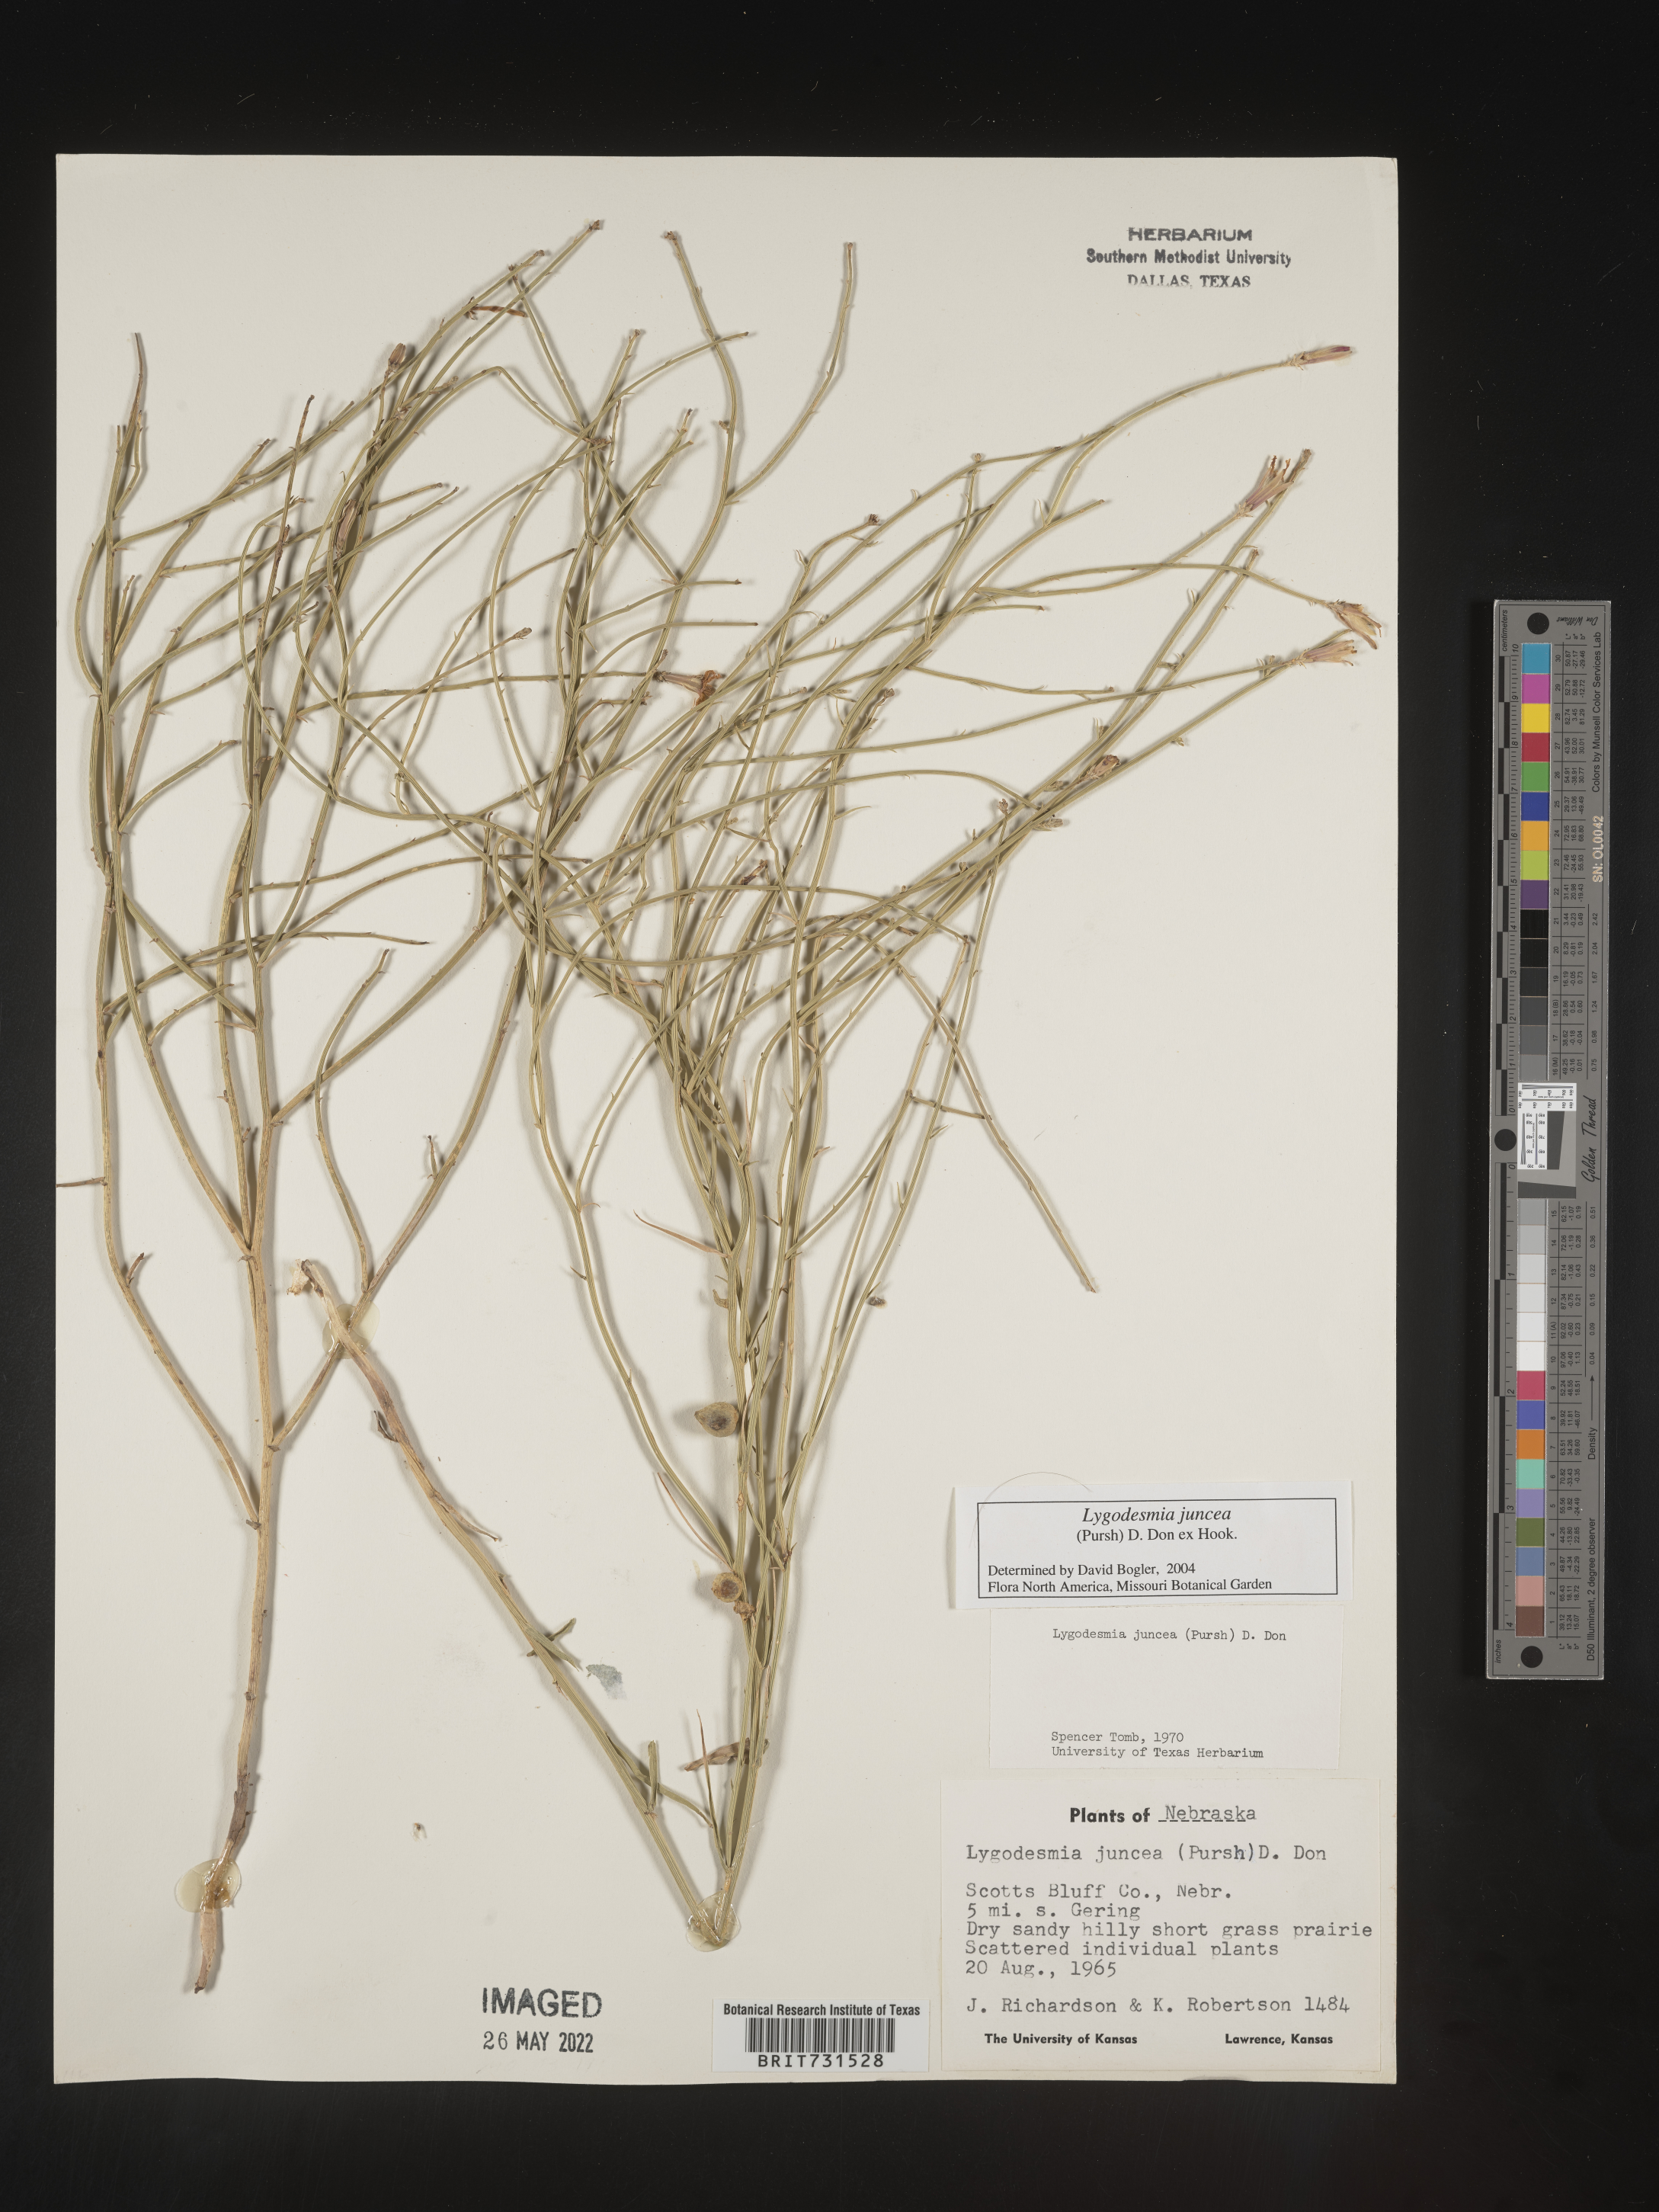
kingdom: Plantae
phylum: Tracheophyta
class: Magnoliopsida
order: Asterales
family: Asteraceae
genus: Lygodesmia
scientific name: Lygodesmia juncea
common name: Common skeletonweed
